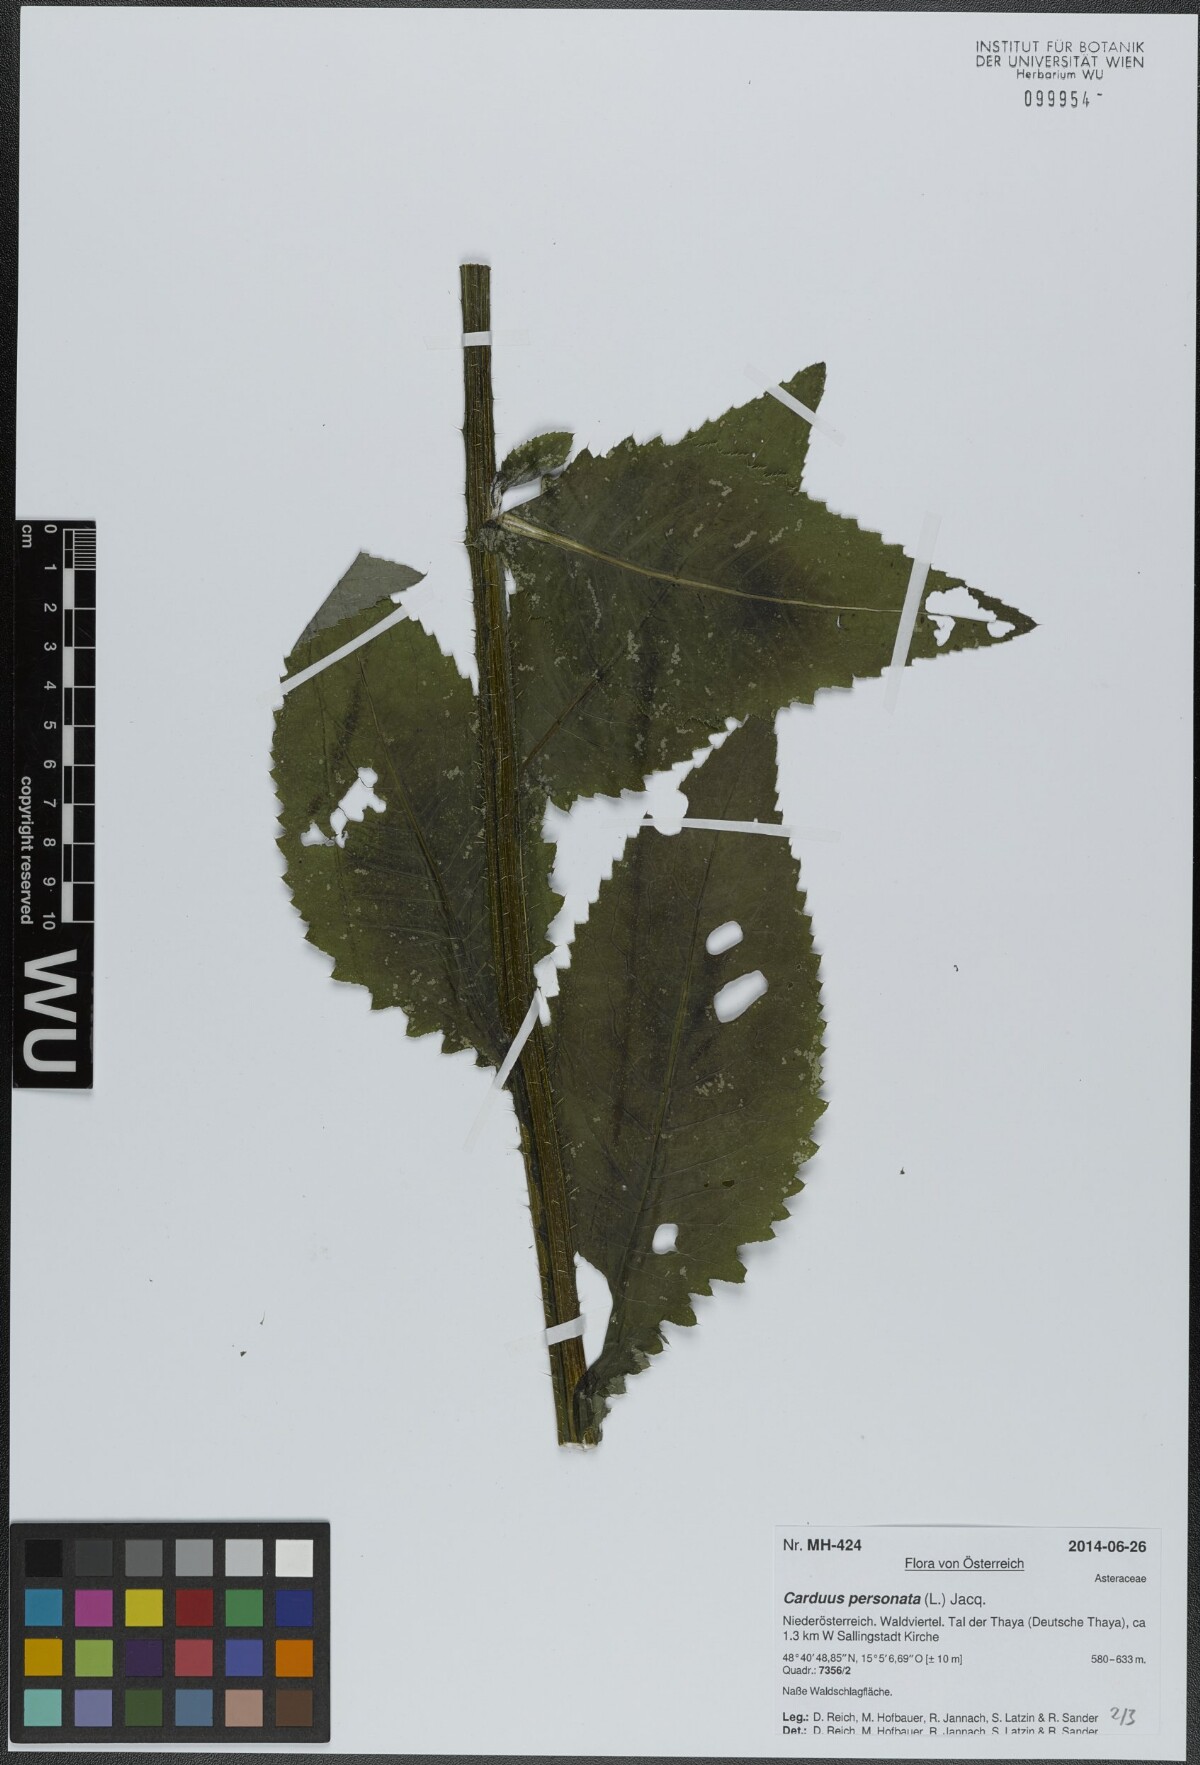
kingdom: Plantae
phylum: Tracheophyta
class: Magnoliopsida
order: Asterales
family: Asteraceae
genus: Carduus
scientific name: Carduus personata
